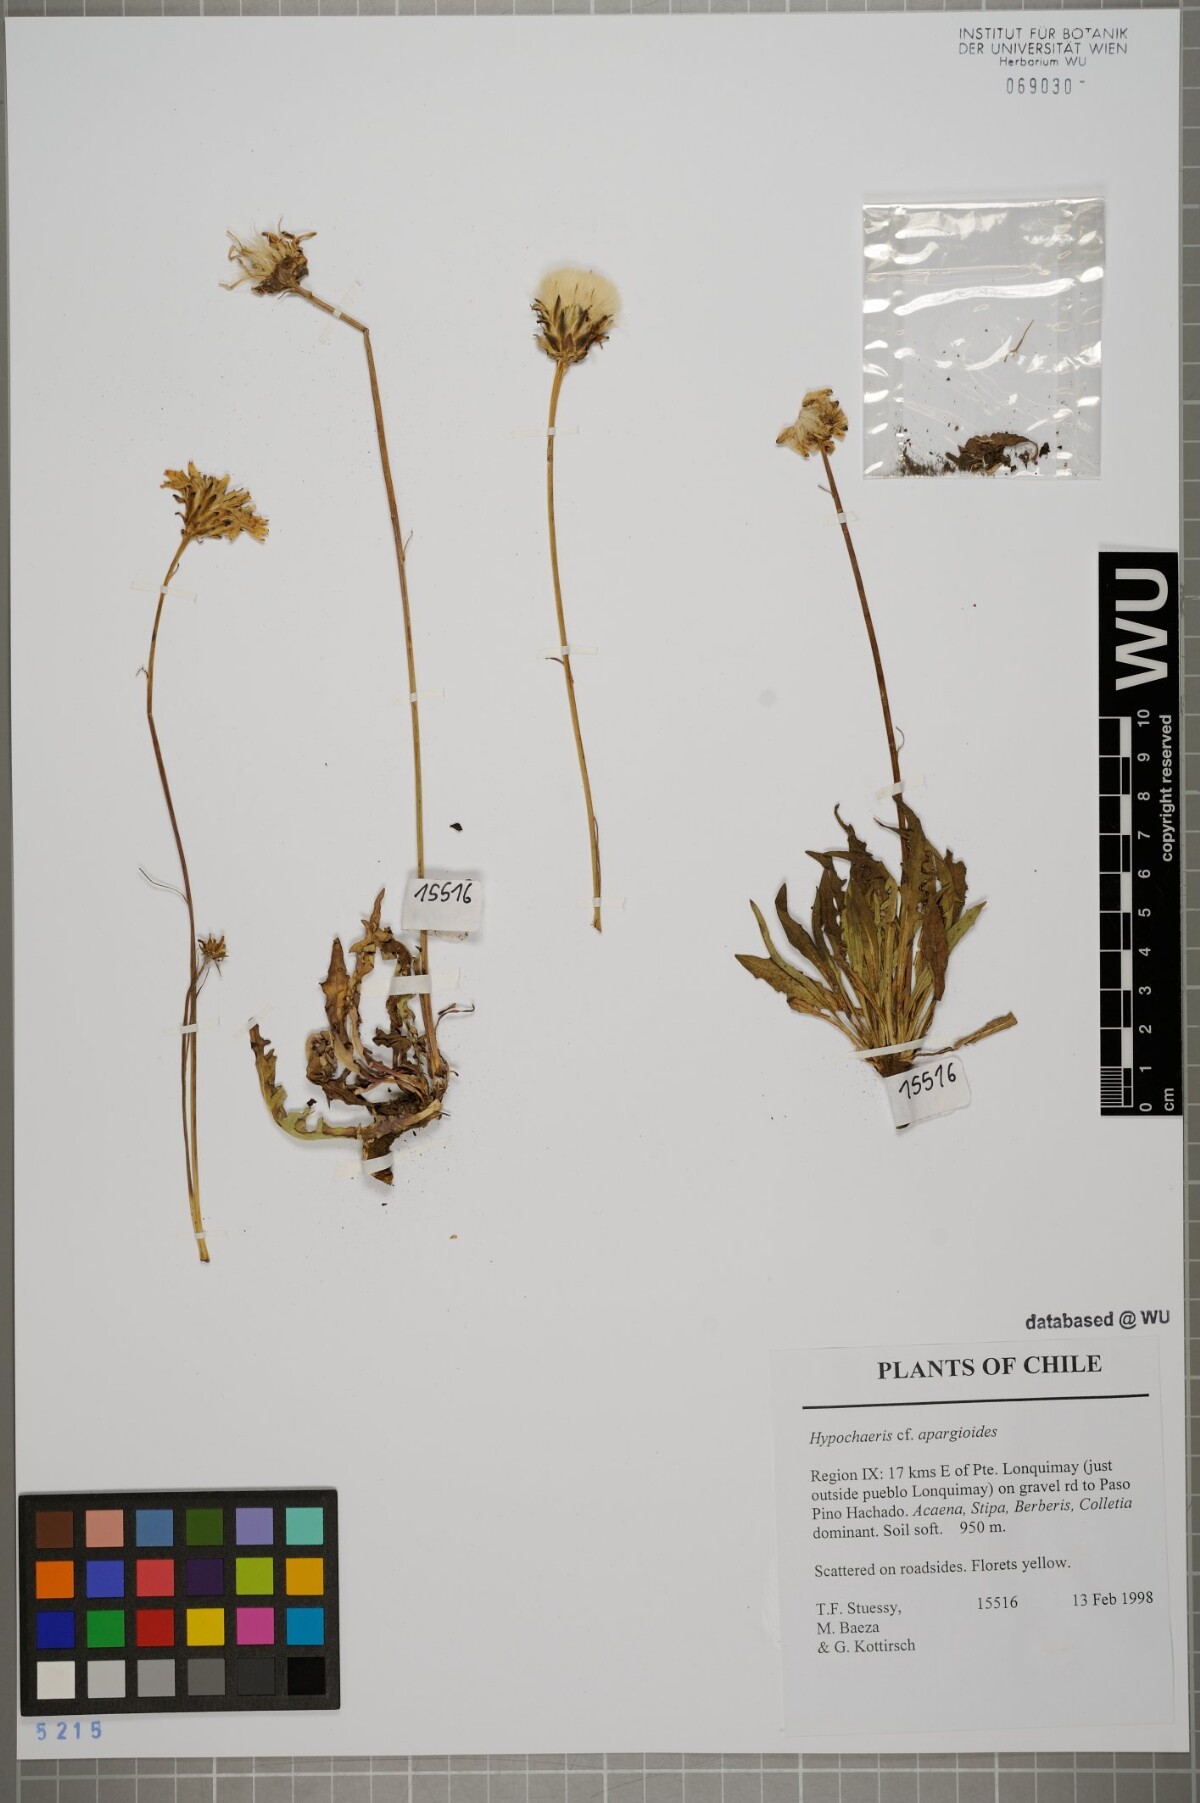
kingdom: Plantae
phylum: Tracheophyta
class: Magnoliopsida
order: Asterales
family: Asteraceae
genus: Hypochaeris
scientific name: Hypochaeris apargioides
